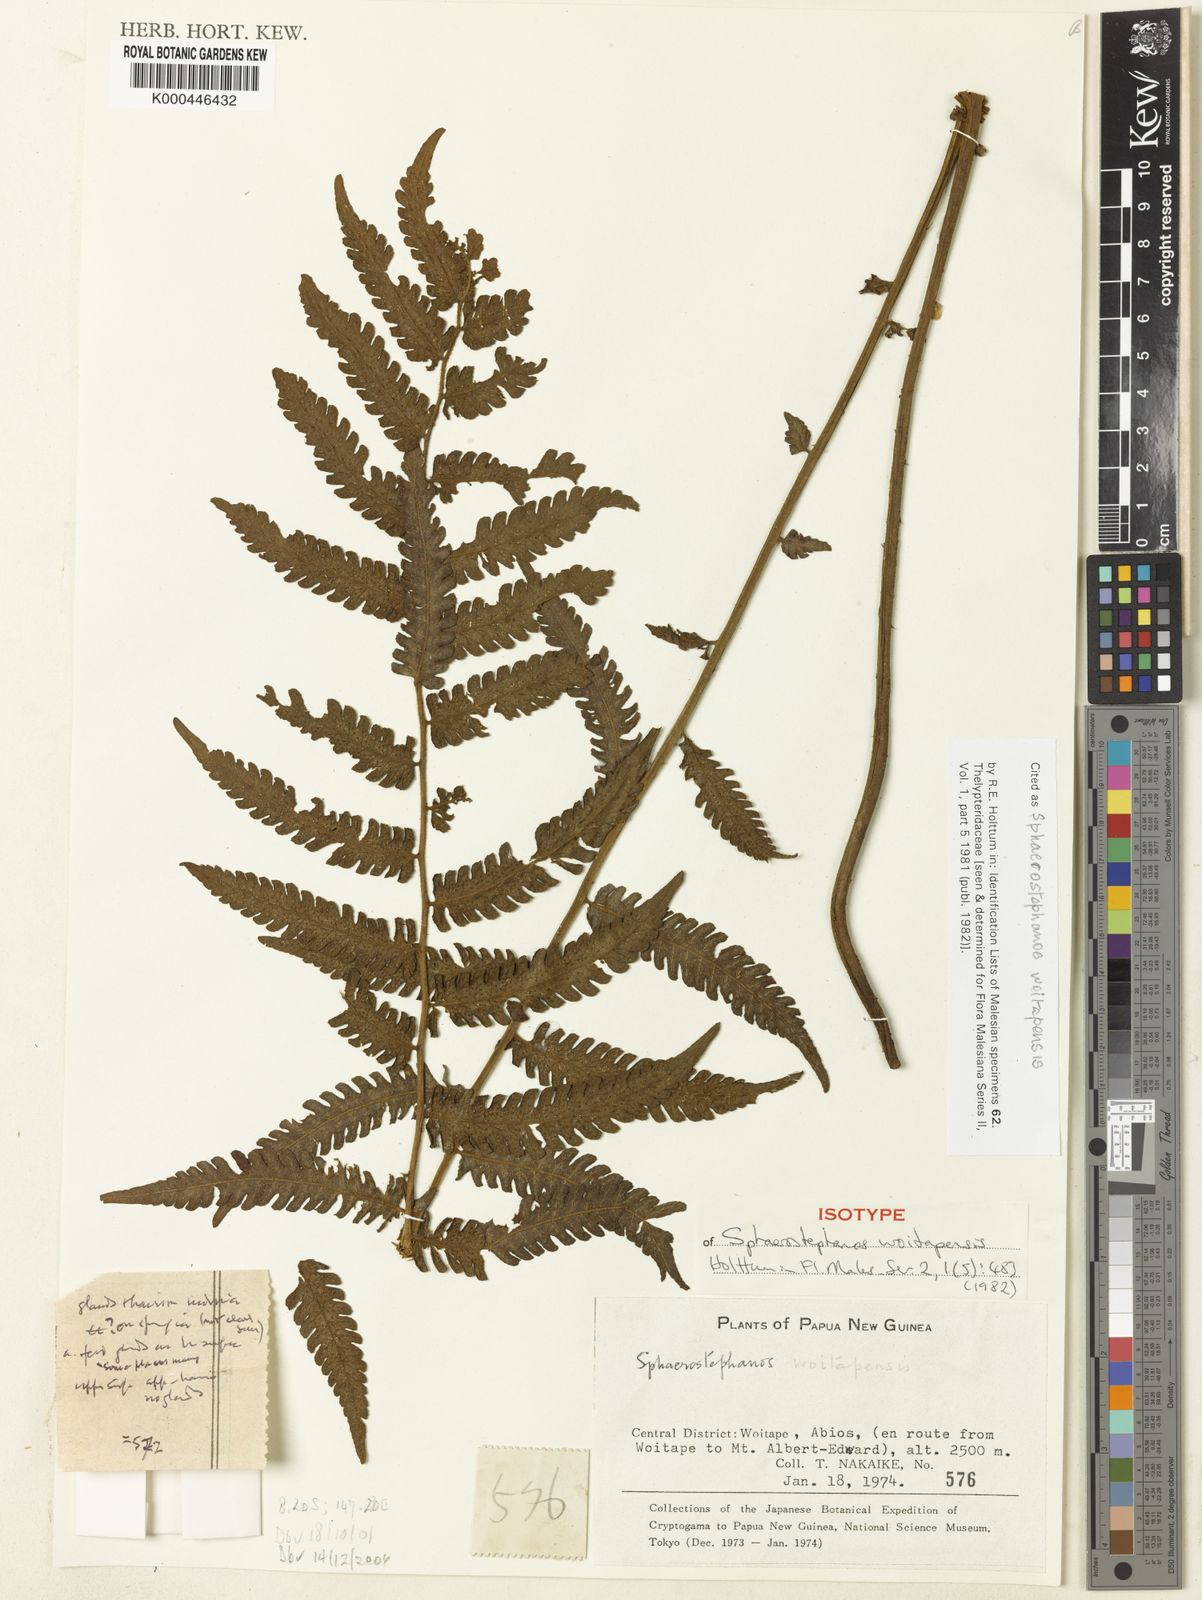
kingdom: Plantae
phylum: Tracheophyta
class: Polypodiopsida
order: Polypodiales
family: Thelypteridaceae
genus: Sphaerostephanos
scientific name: Sphaerostephanos woitapensis
